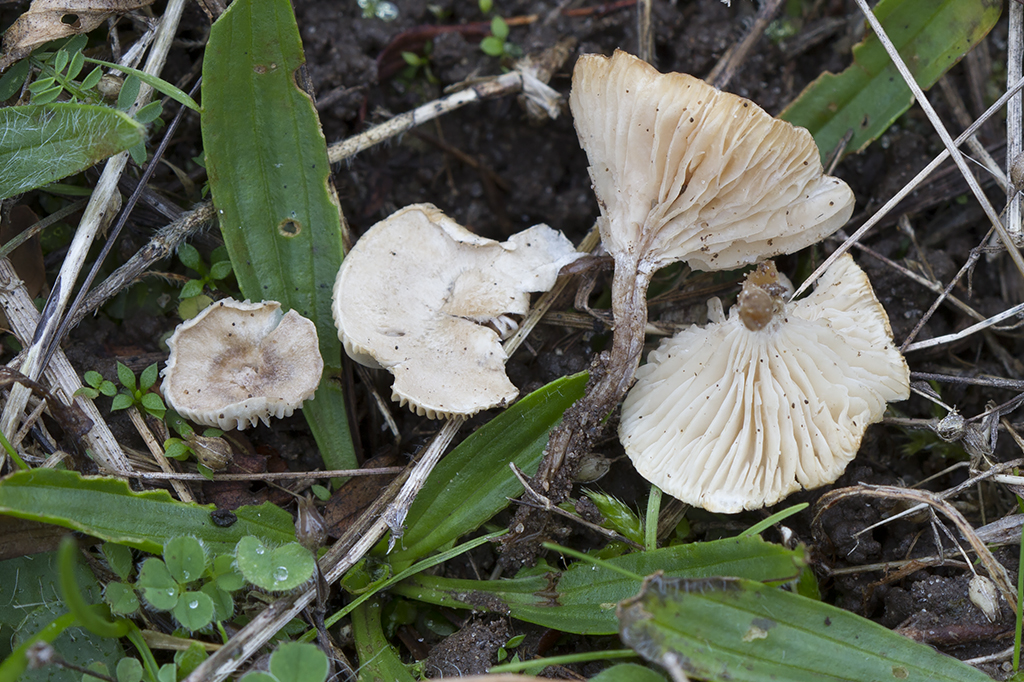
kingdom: Fungi
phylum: Basidiomycota
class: Agaricomycetes
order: Agaricales
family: Hygrophoraceae
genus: Spodocybe
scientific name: Spodocybe collina
